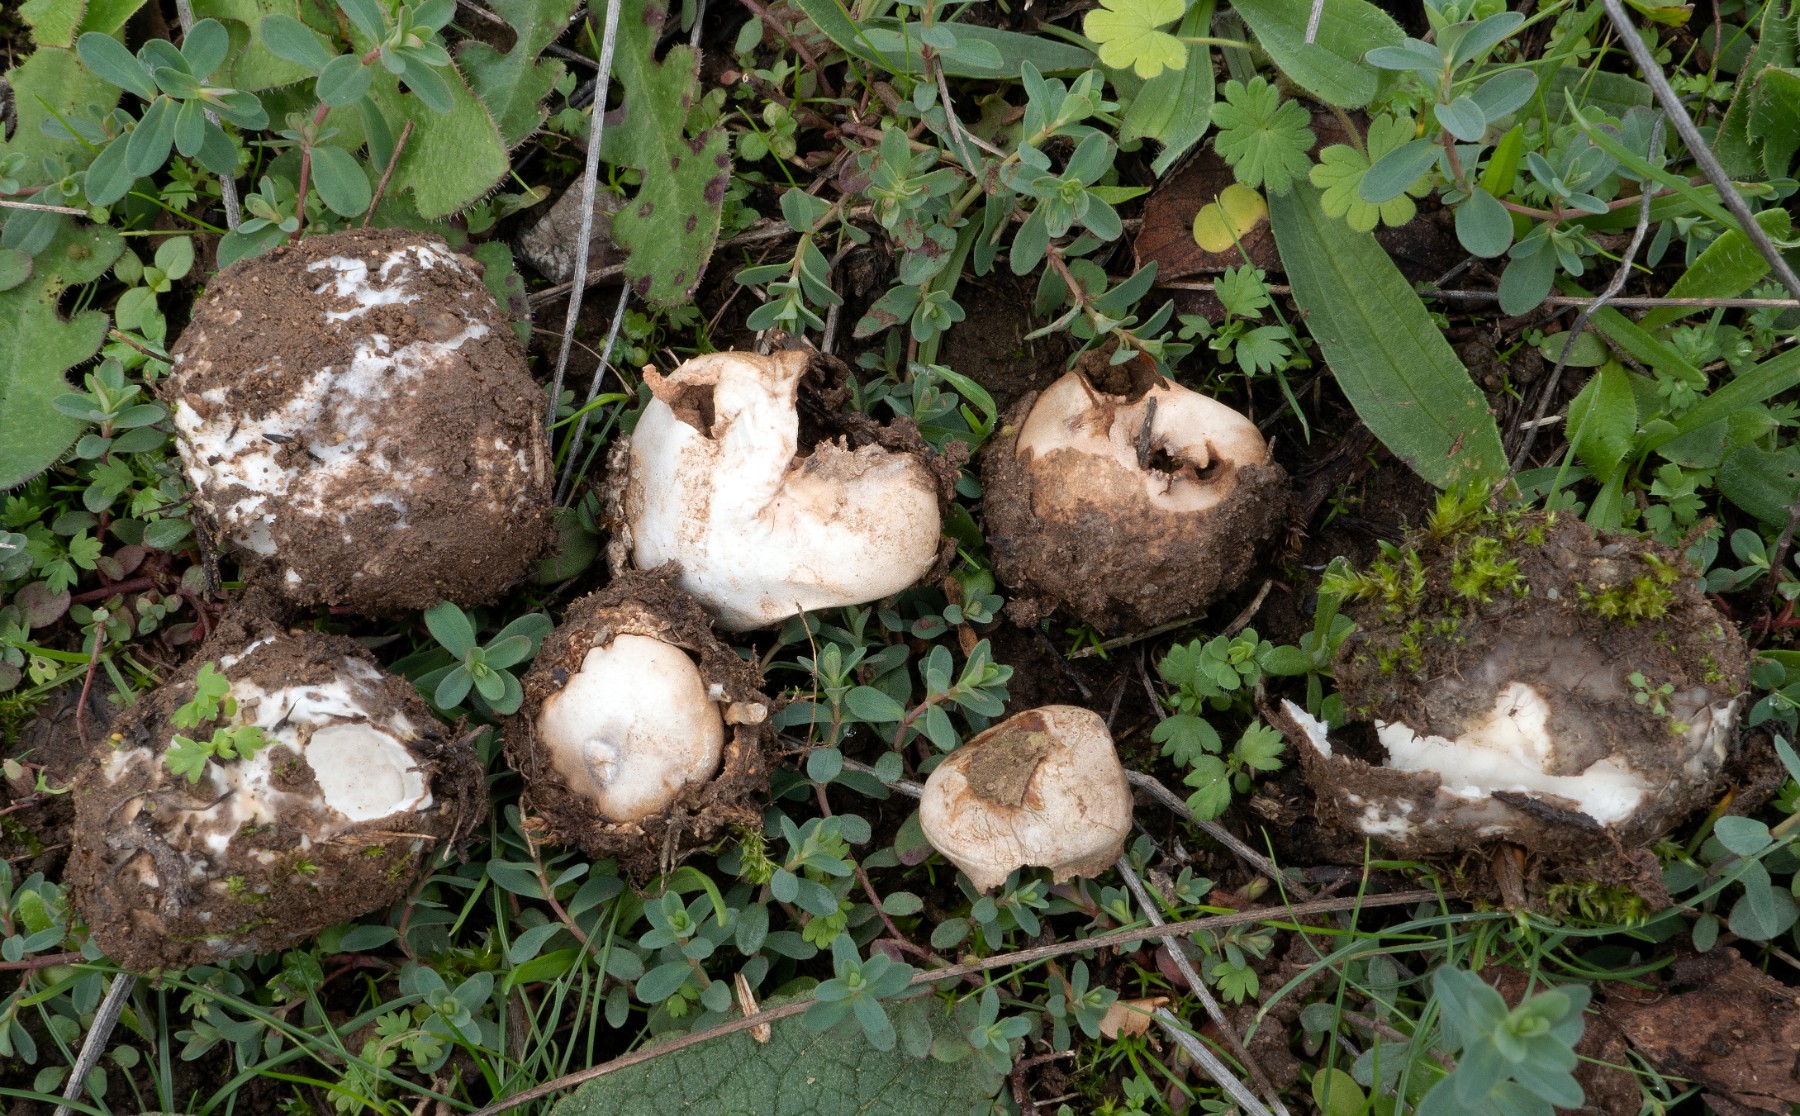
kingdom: Fungi
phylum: Basidiomycota
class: Agaricomycetes
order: Agaricales
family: Agaricaceae
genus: Disciseda
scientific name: Disciseda verrucosa
